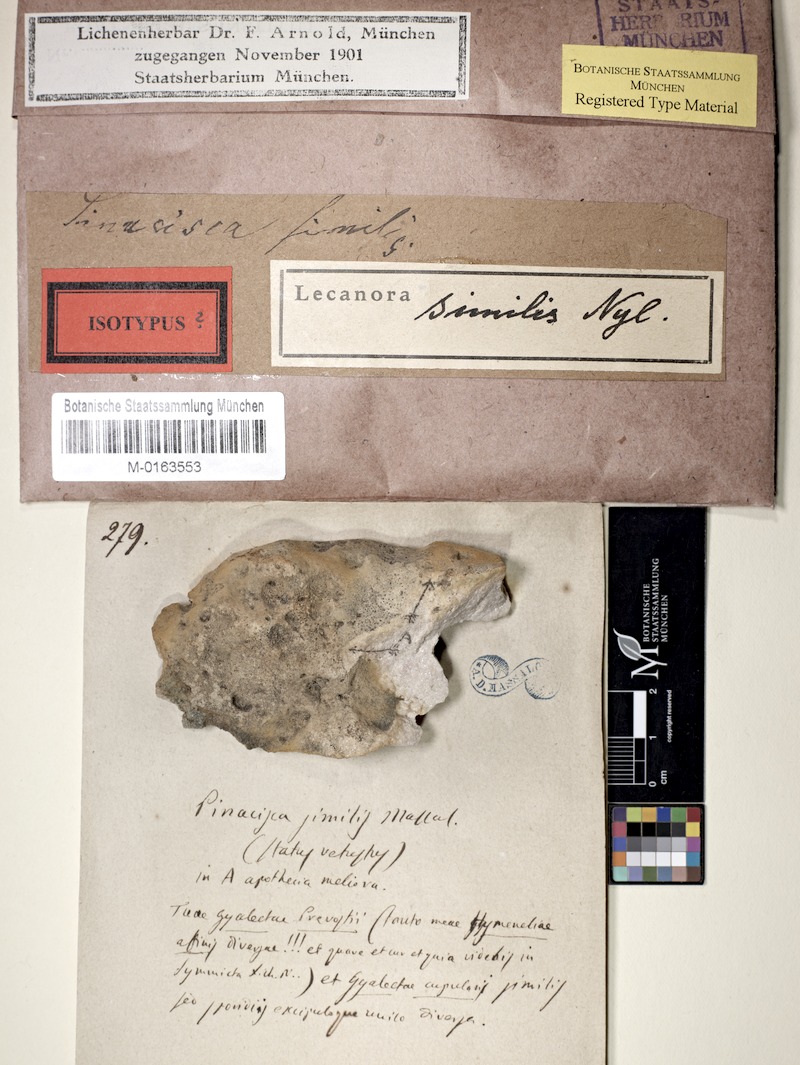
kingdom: Fungi
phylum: Ascomycota
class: Lecanoromycetes
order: Hymeneliales
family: Hymeneliaceae
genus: Hymenelia
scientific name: Hymenelia similis
